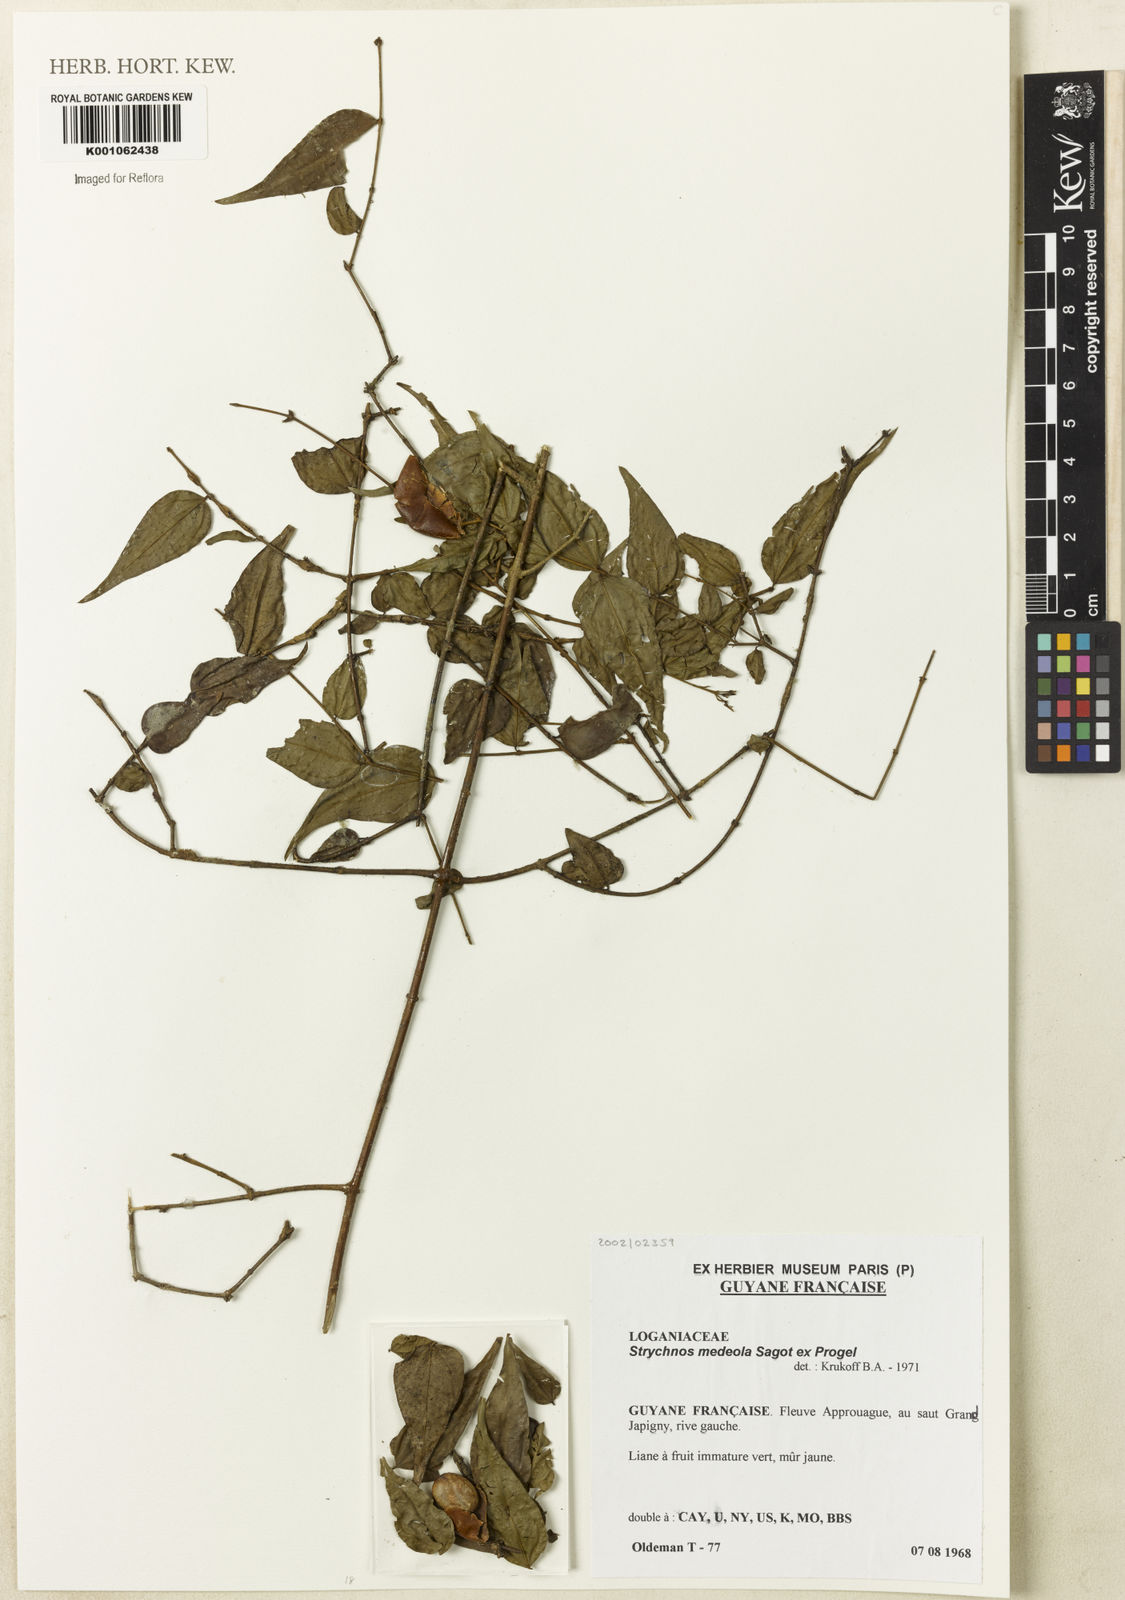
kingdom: Plantae
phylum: Tracheophyta
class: Magnoliopsida
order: Gentianales
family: Loganiaceae
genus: Strychnos
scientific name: Strychnos medeola
